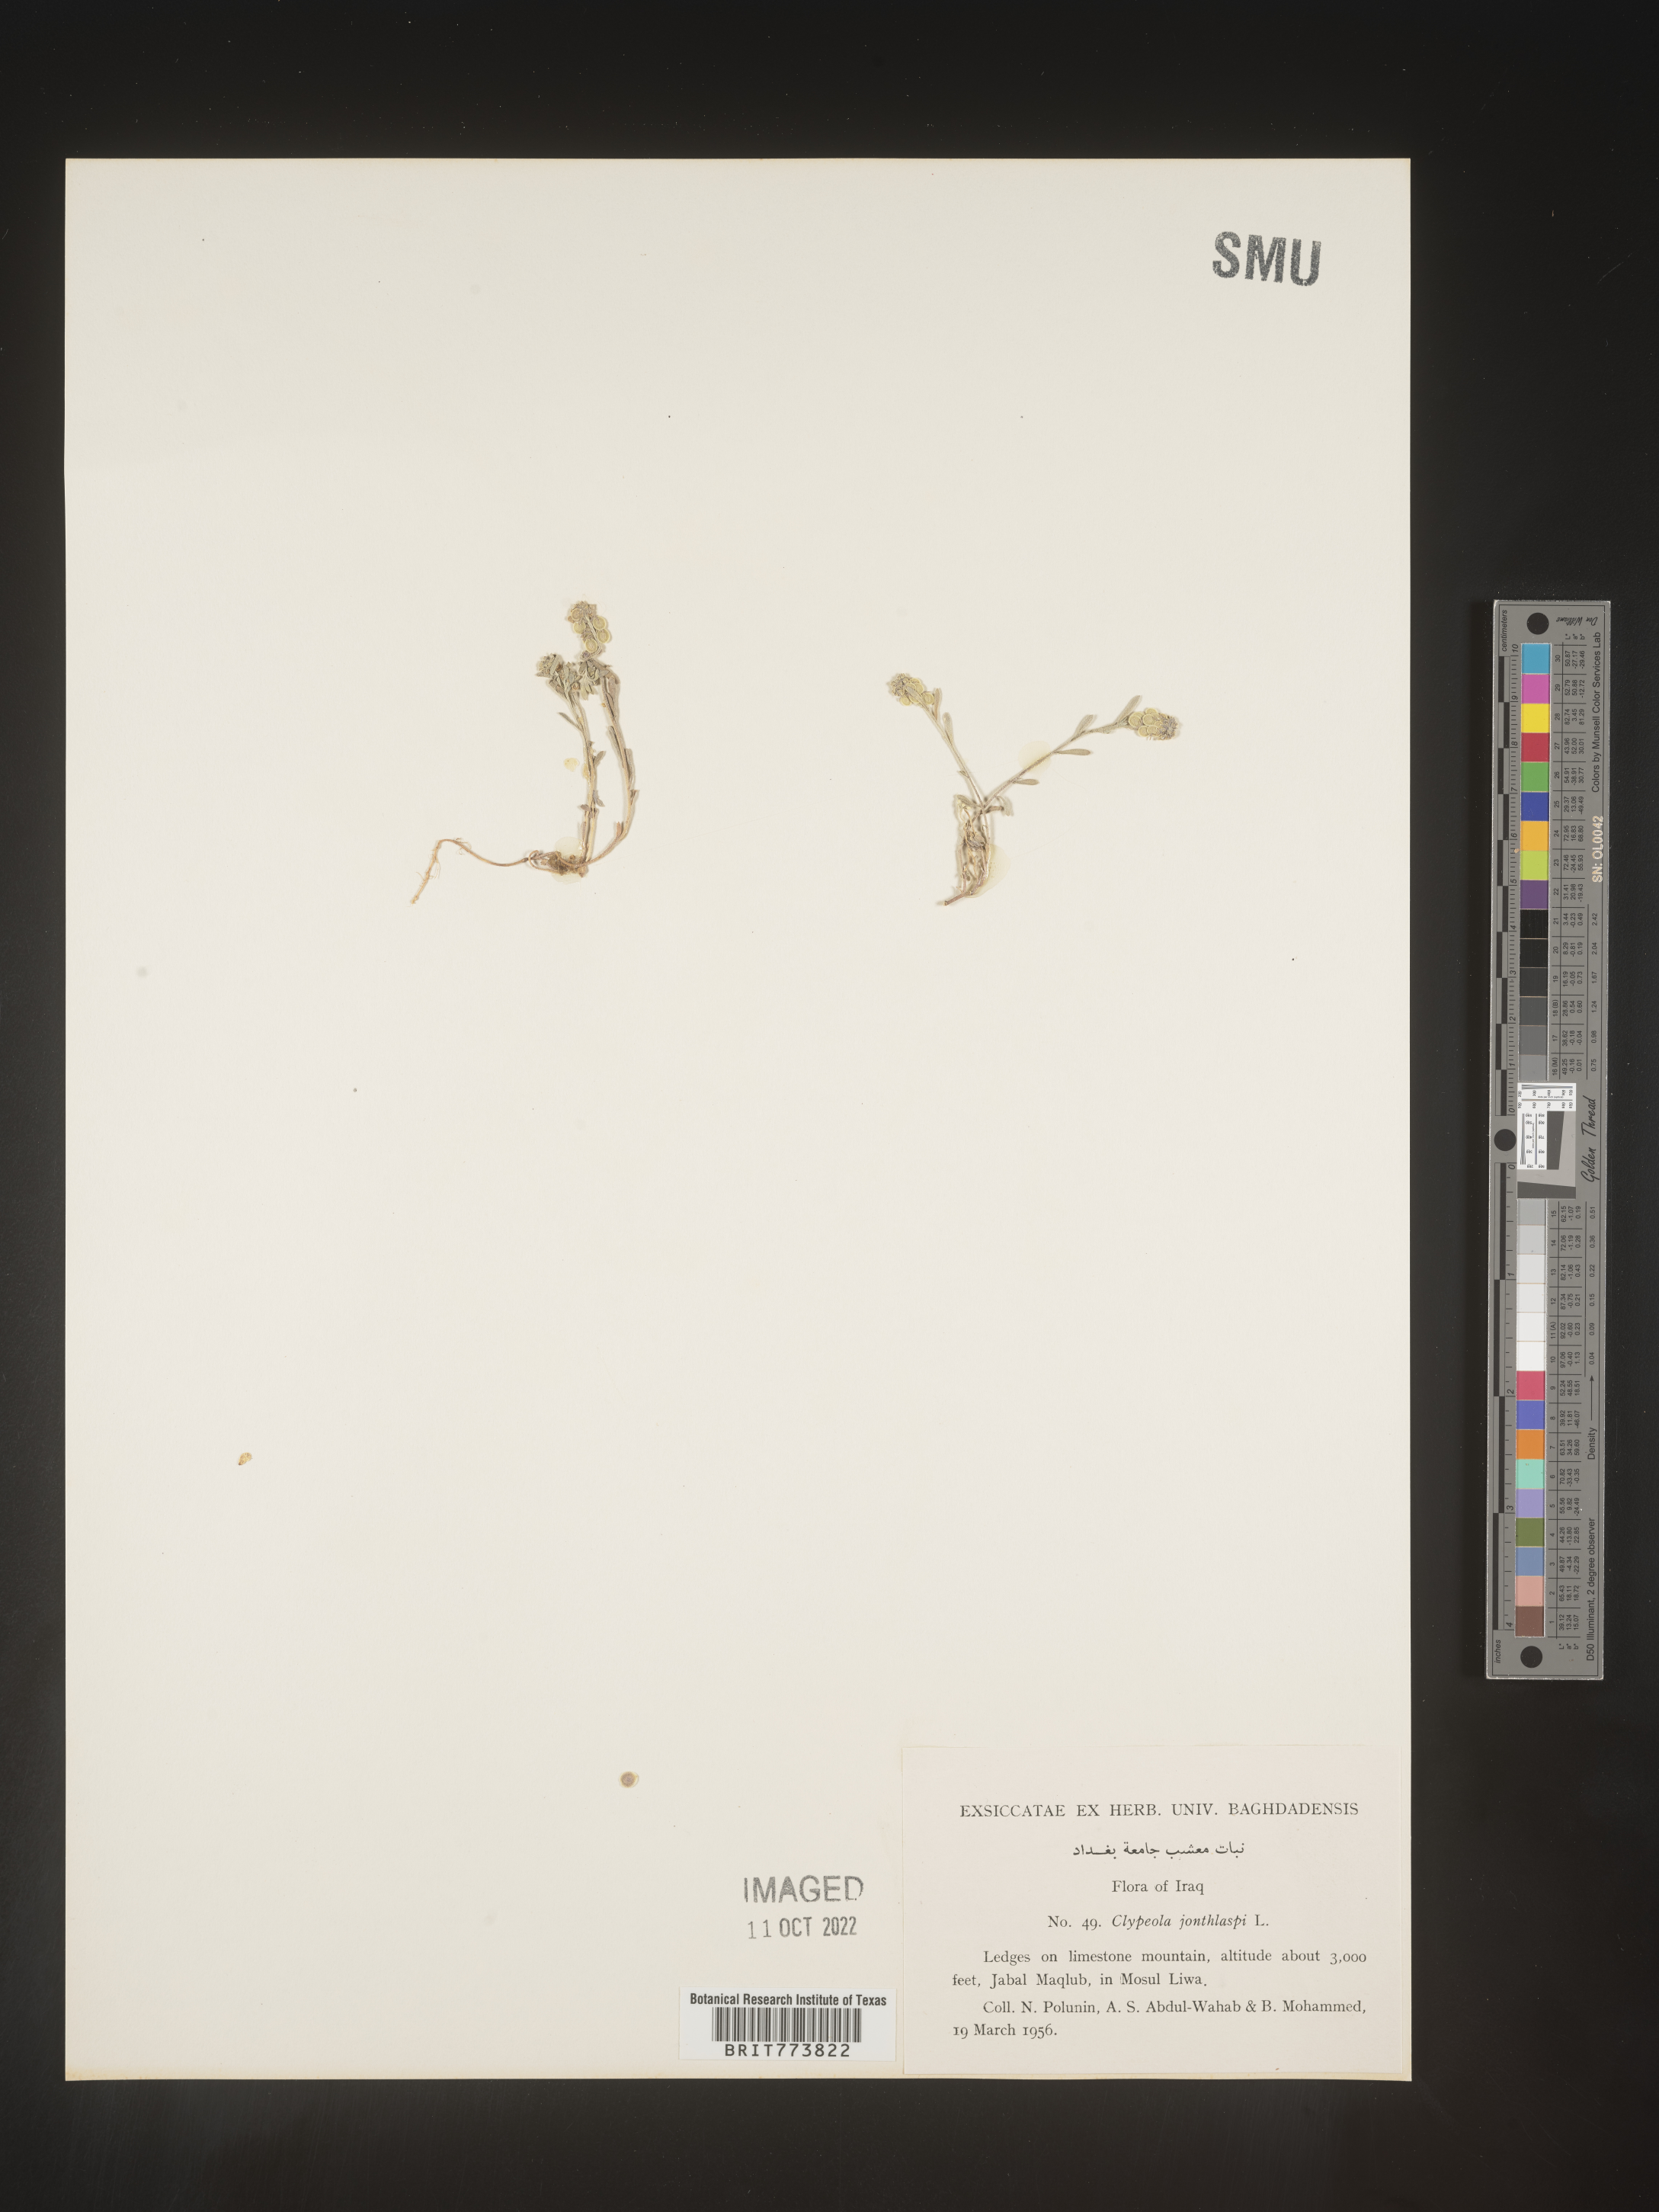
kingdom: Plantae
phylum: Tracheophyta
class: Magnoliopsida
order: Brassicales
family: Brassicaceae
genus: Clypeola
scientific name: Clypeola
